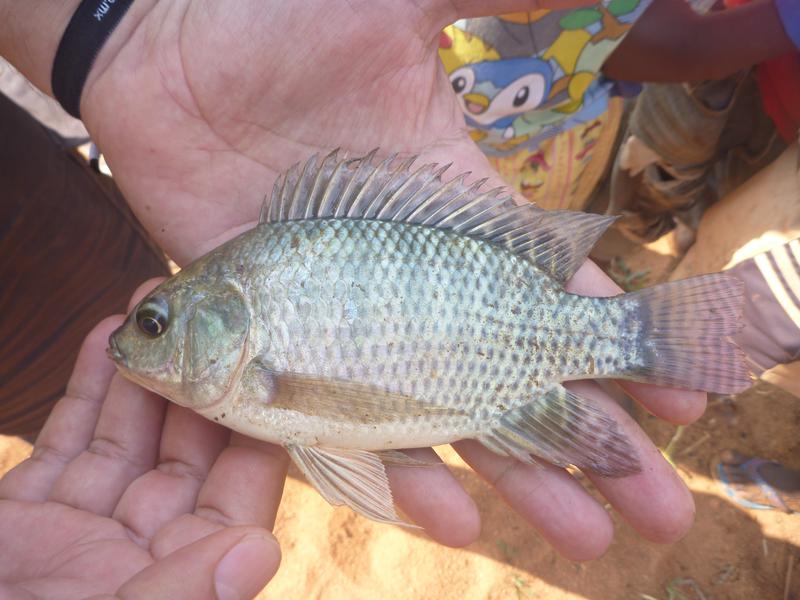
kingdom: Animalia
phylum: Chordata
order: Perciformes
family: Cichlidae
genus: Oreochromis
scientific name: Oreochromis niloticus
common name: Nile tilapia
